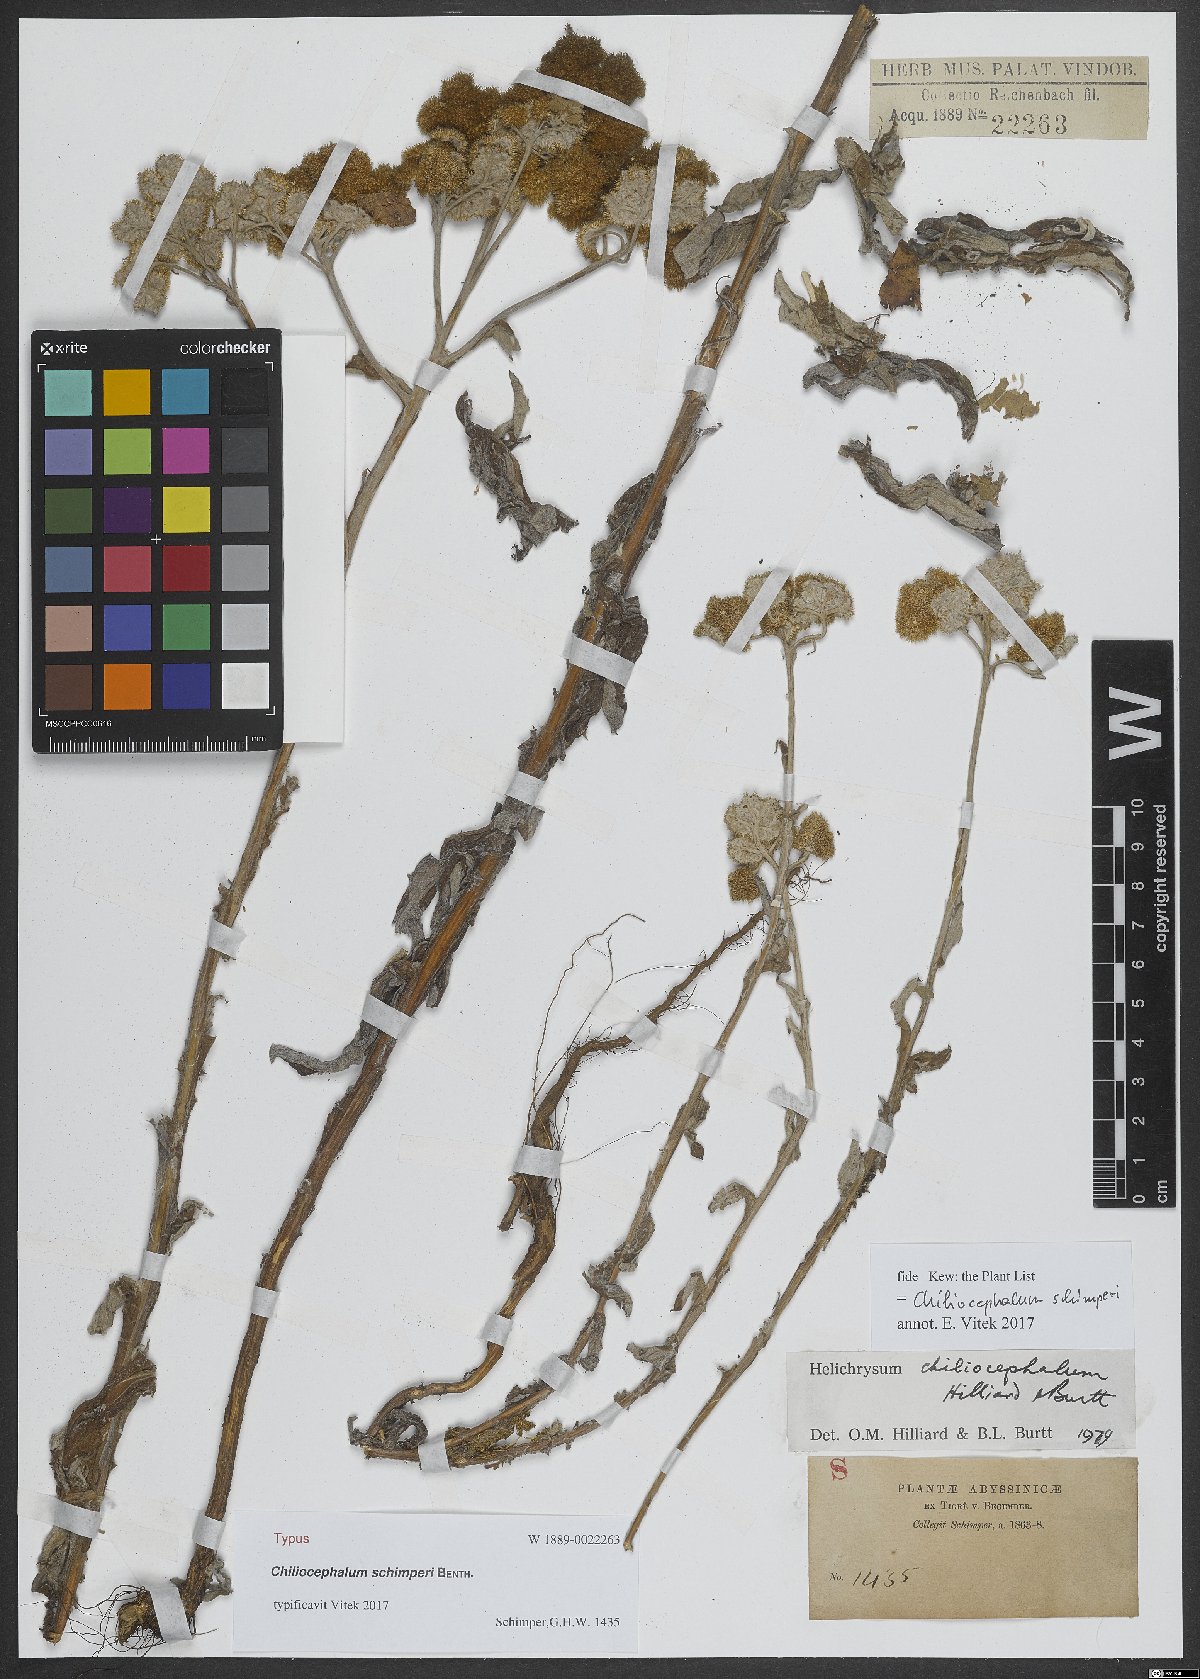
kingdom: Plantae
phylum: Tracheophyta
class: Magnoliopsida
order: Asterales
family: Asteraceae
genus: Chiliocephalum
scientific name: Chiliocephalum schimperi
